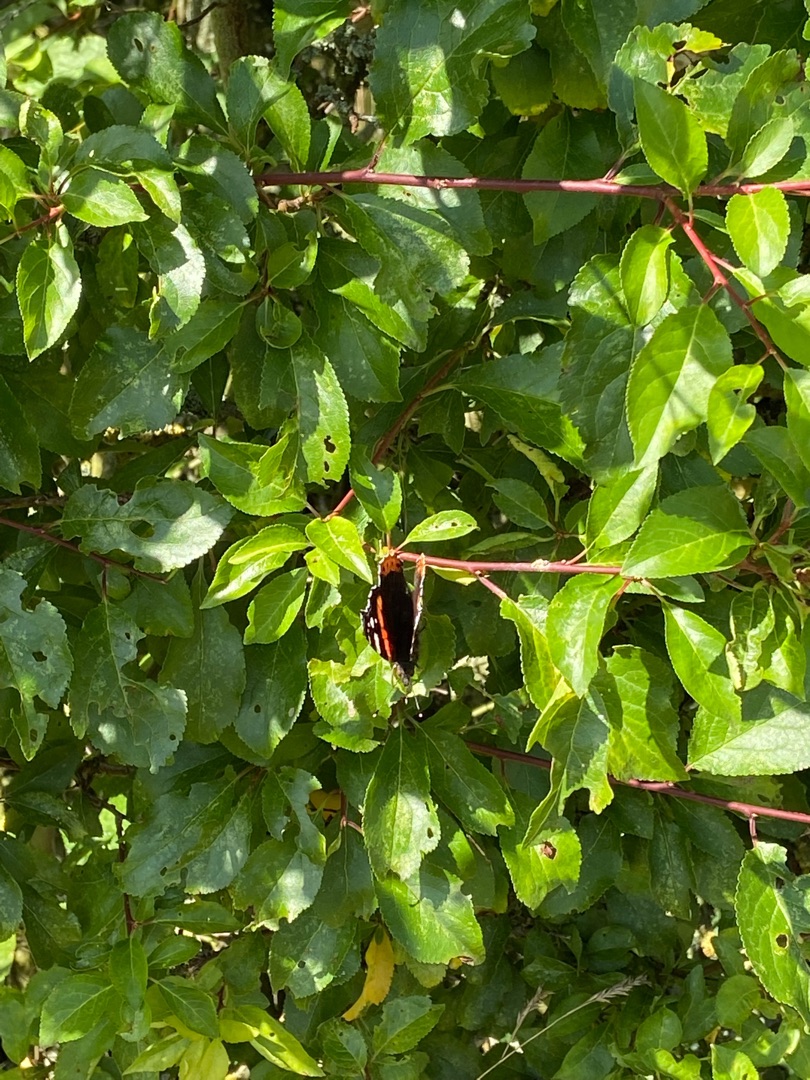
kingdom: Animalia
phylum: Arthropoda
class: Insecta
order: Lepidoptera
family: Nymphalidae
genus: Vanessa
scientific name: Vanessa atalanta
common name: Admiral
